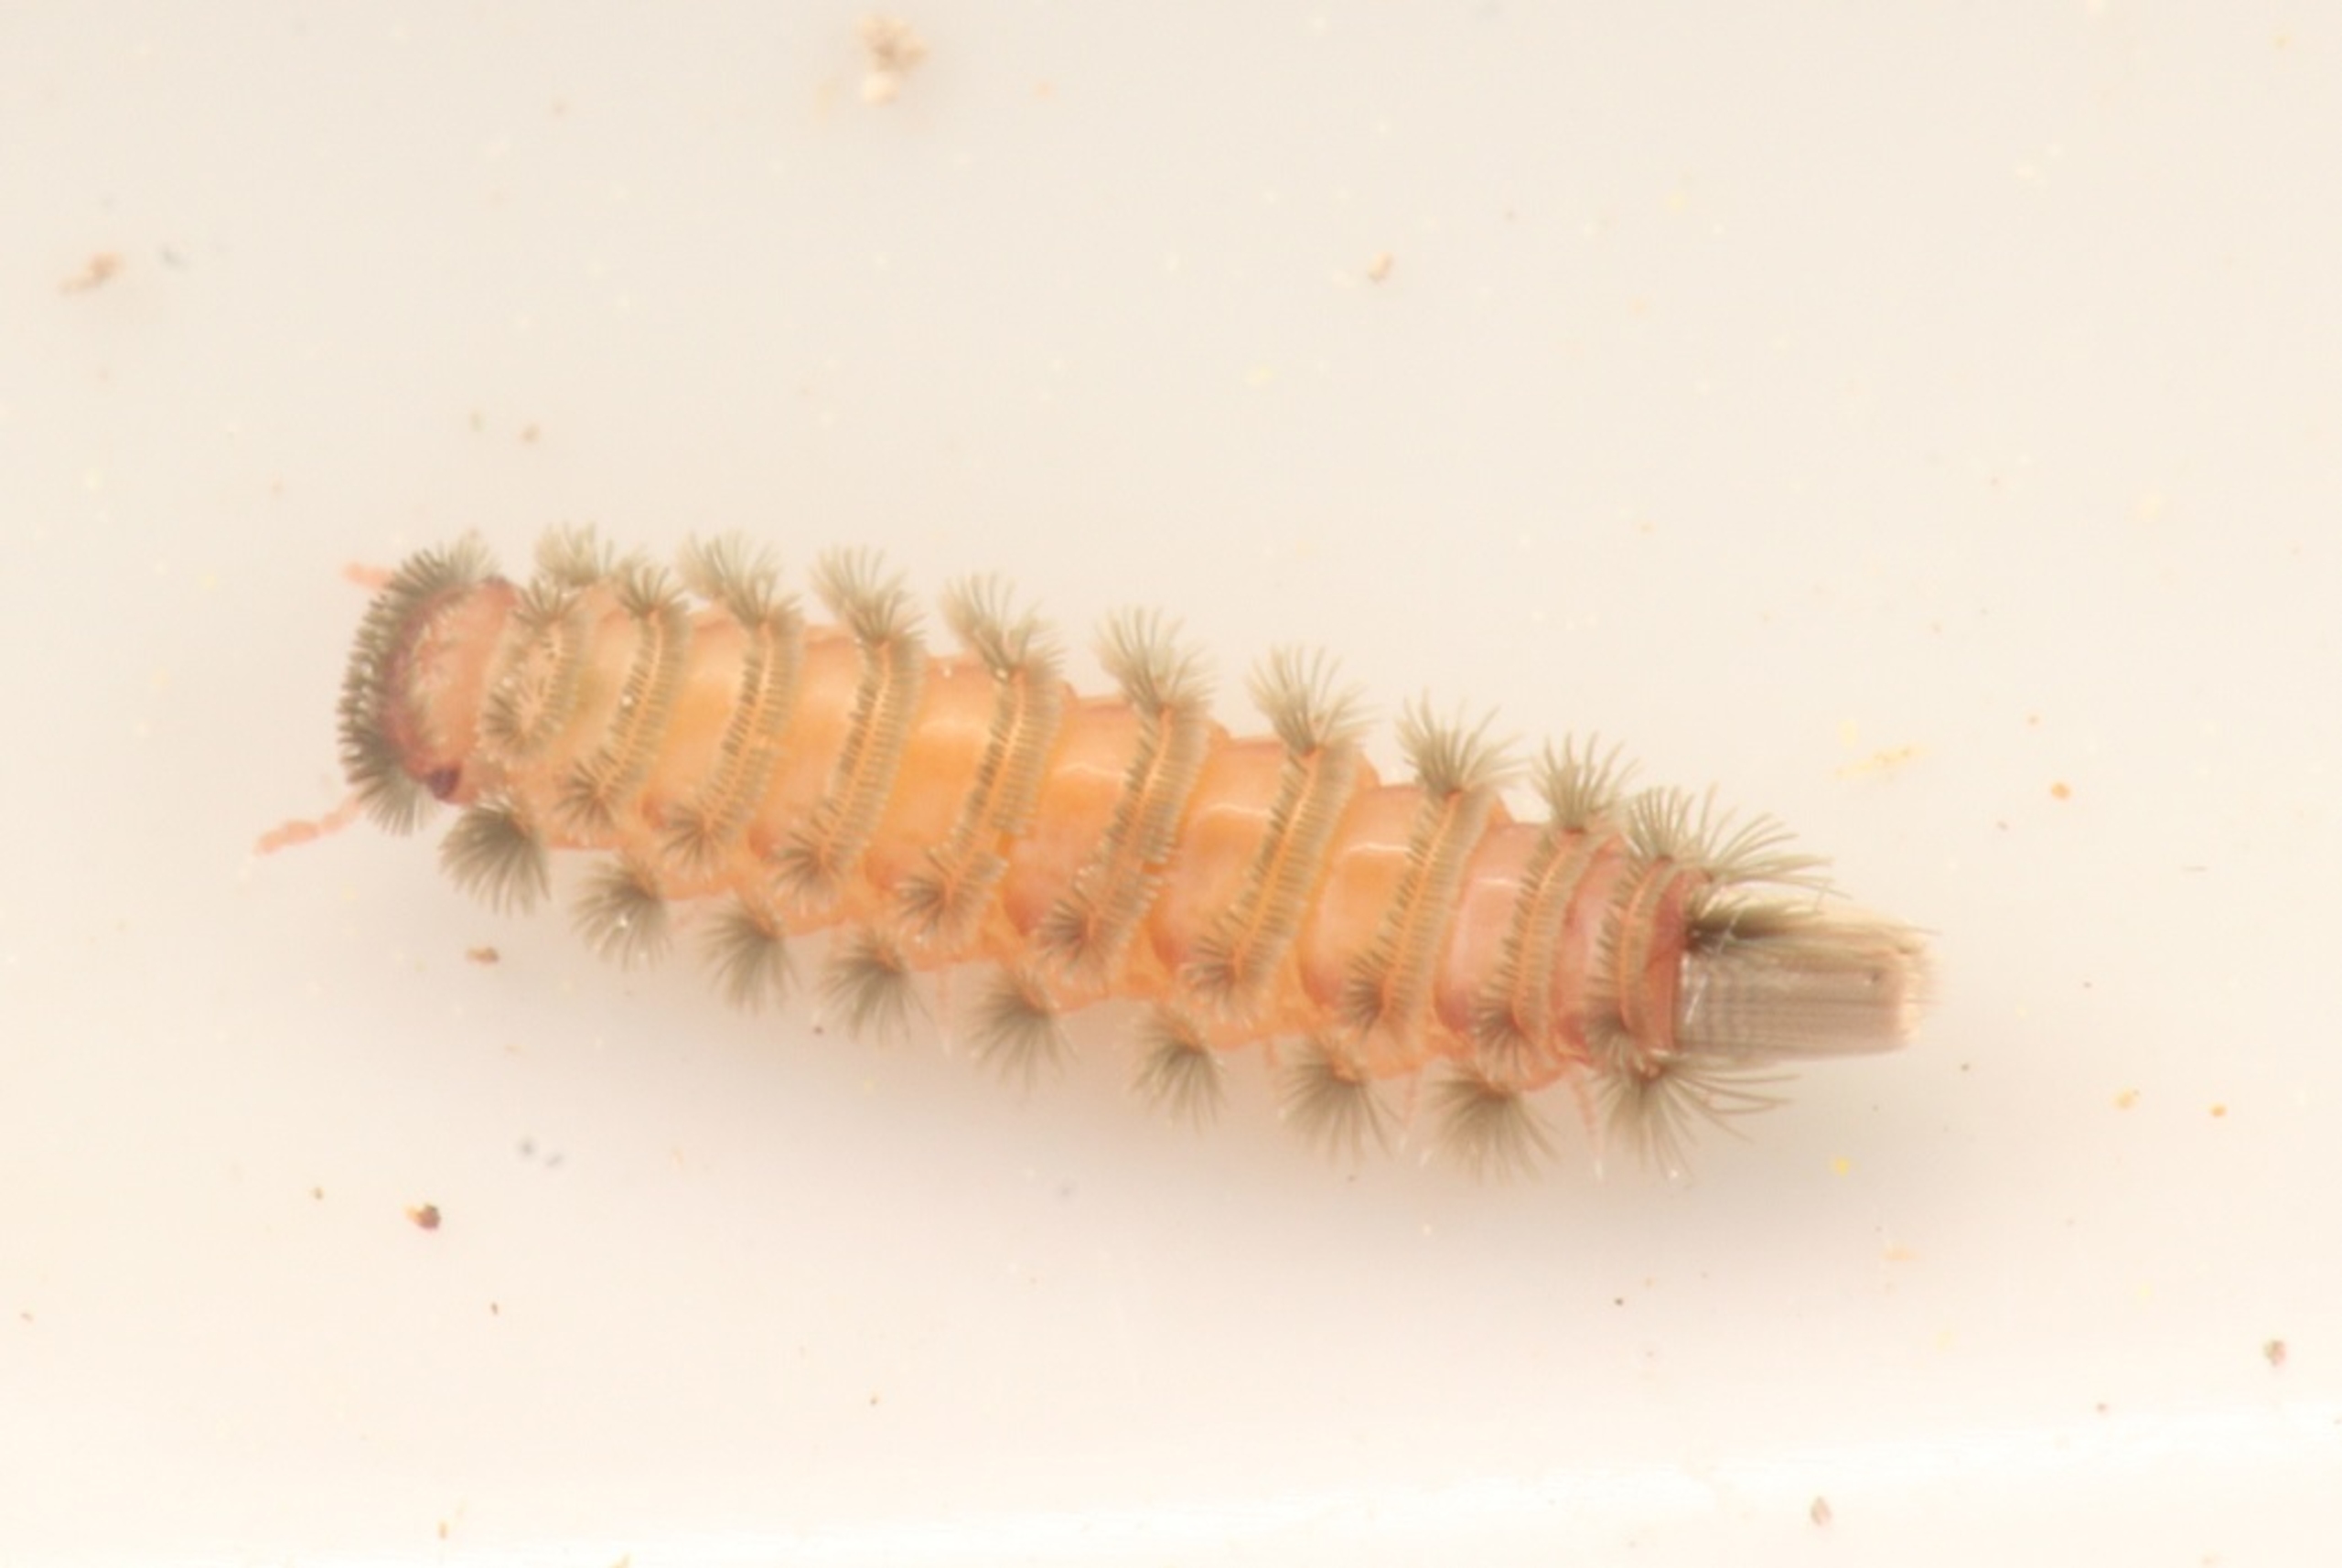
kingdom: Animalia
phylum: Arthropoda
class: Diplopoda
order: Polyxenida
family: Polyxenidae
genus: Polyxenus
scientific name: Polyxenus lagurus
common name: Penseltusindben
